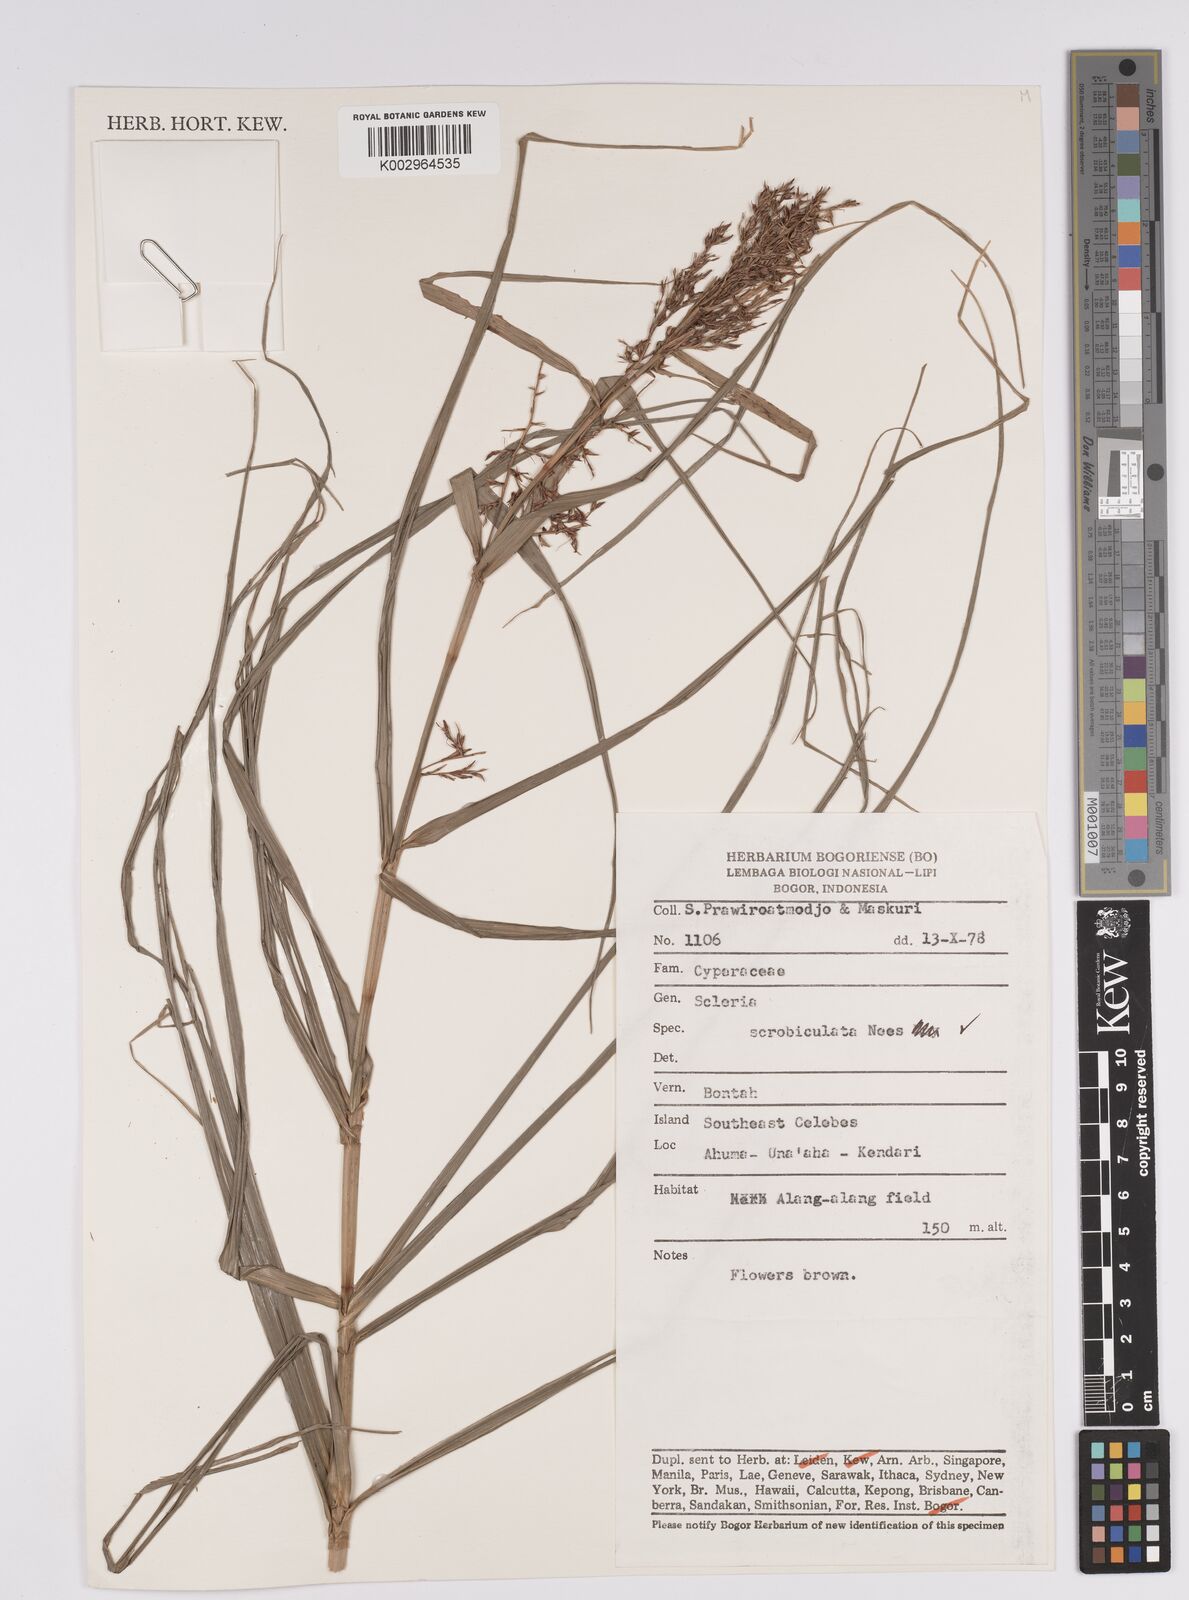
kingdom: Plantae
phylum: Tracheophyta
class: Liliopsida
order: Poales
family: Cyperaceae
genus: Scleria
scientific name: Scleria scrobiculata
